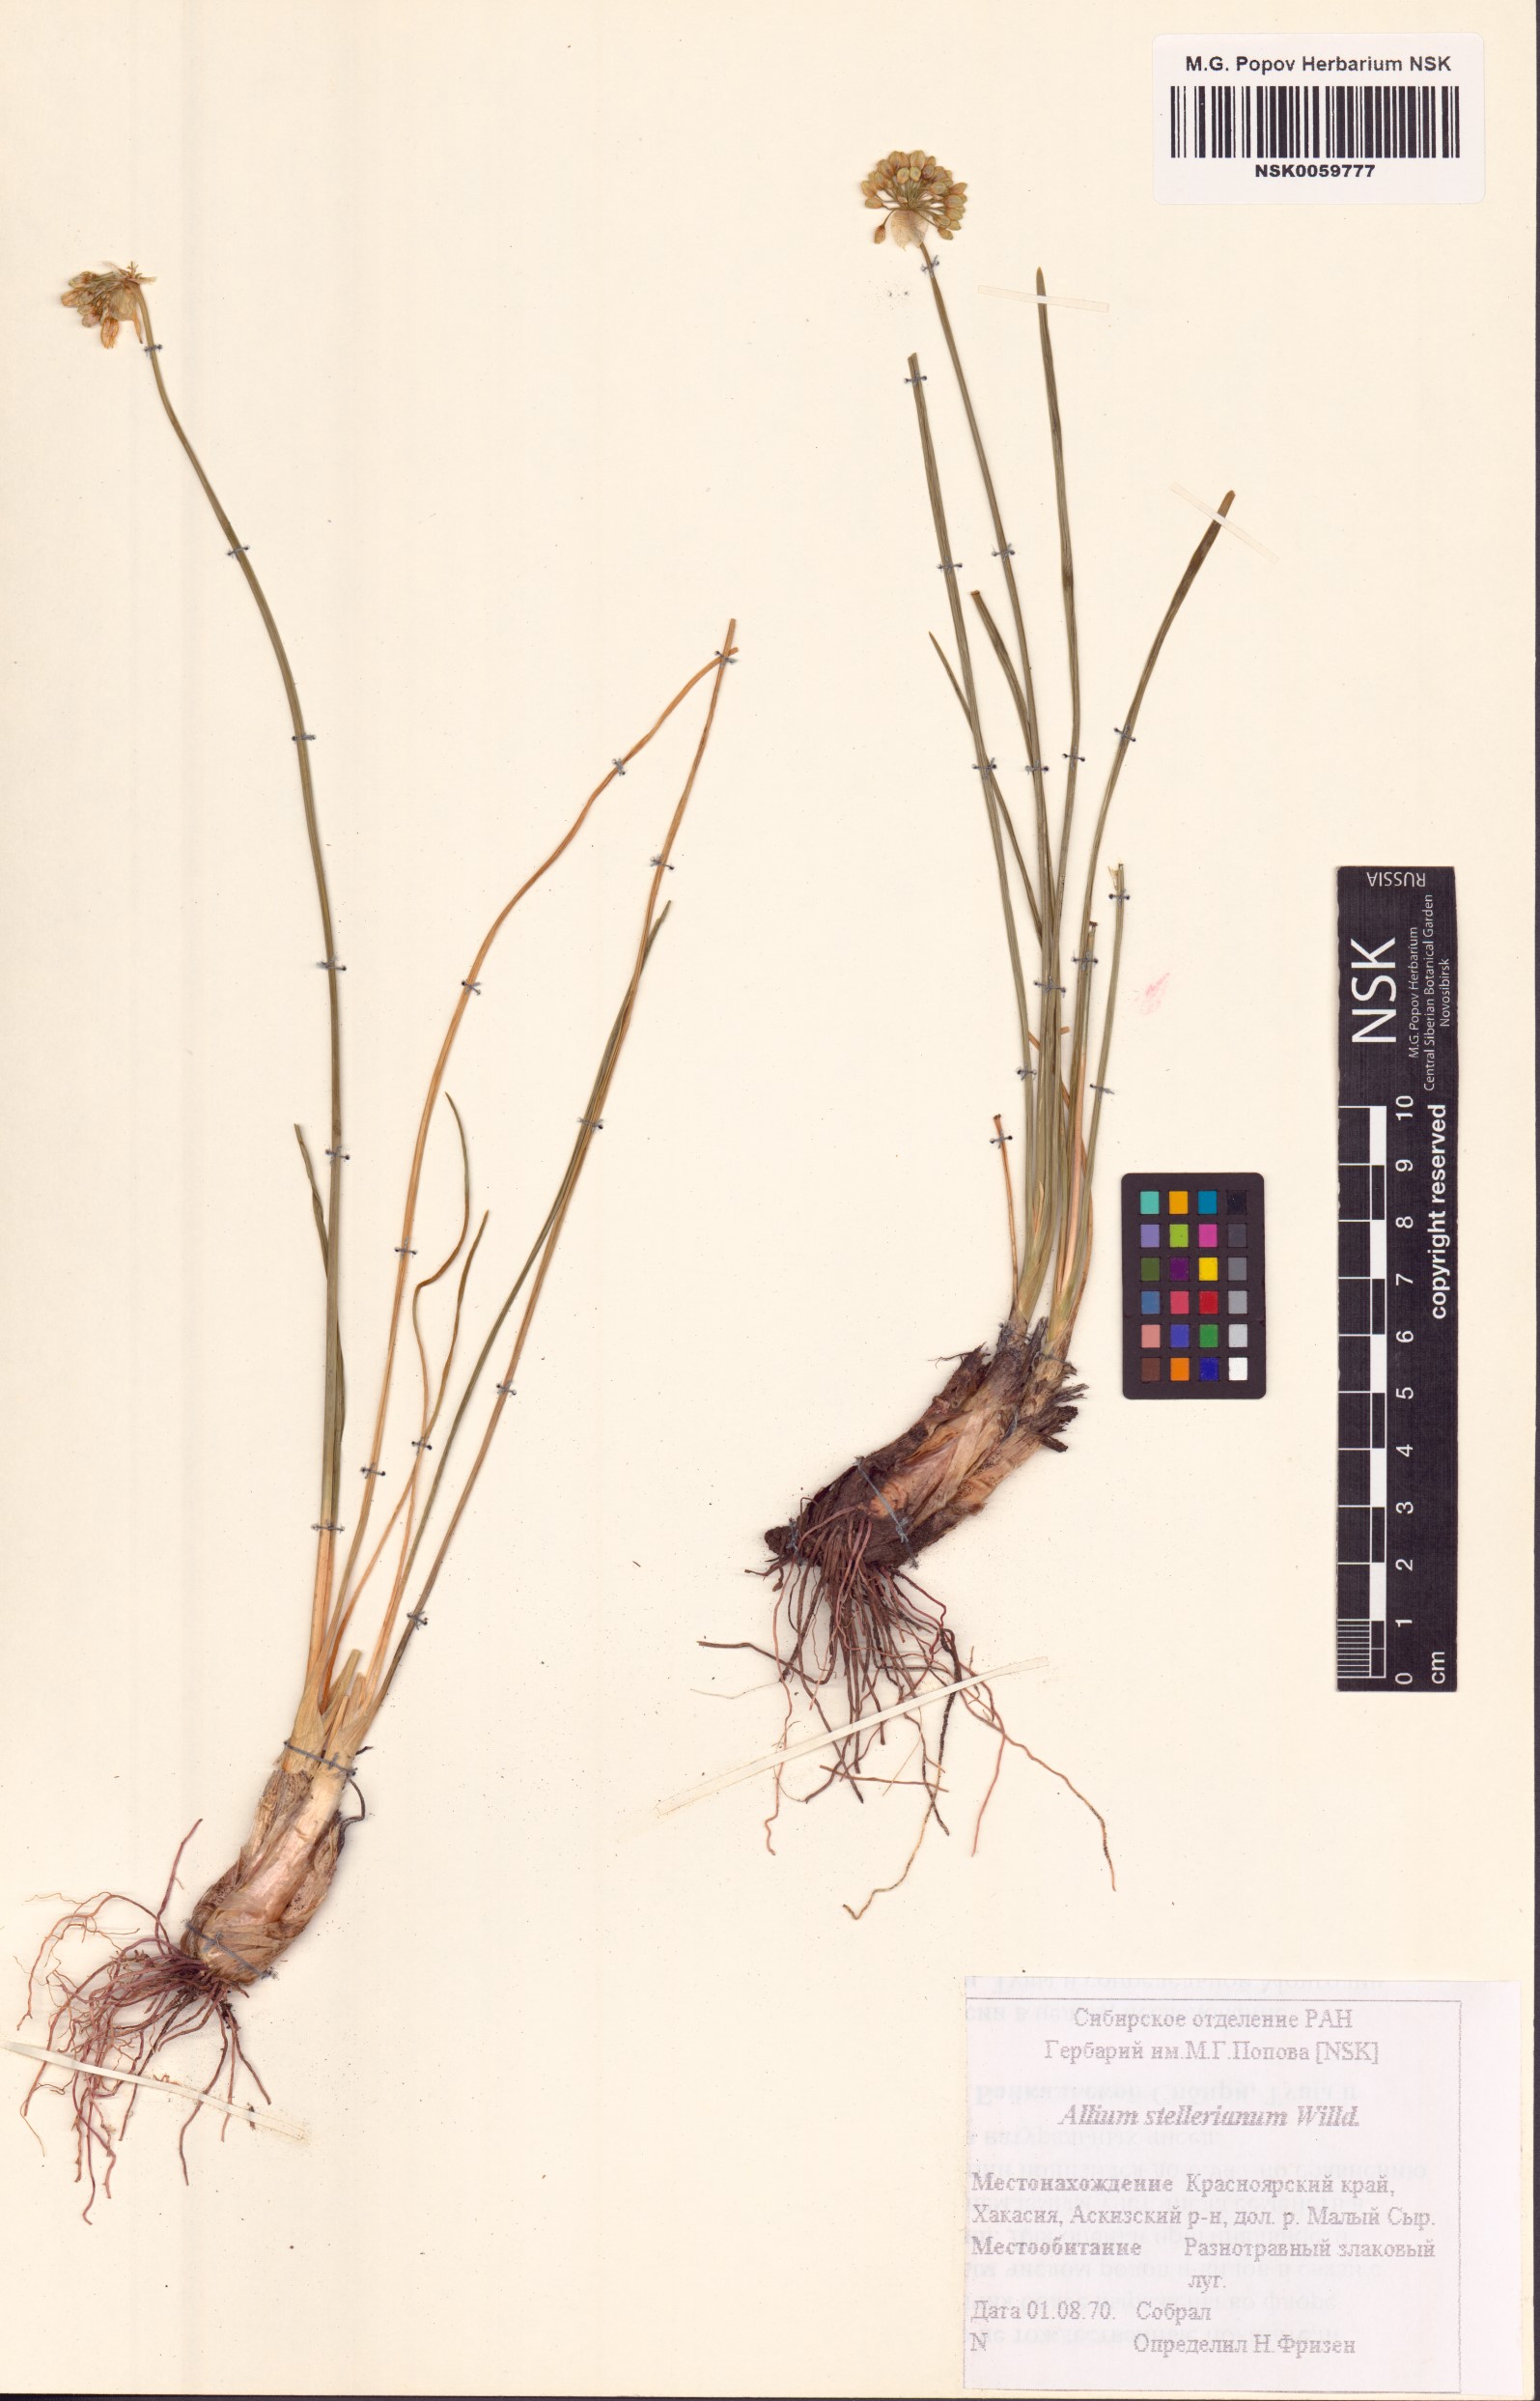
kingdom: Plantae
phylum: Tracheophyta
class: Liliopsida
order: Asparagales
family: Amaryllidaceae
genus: Allium
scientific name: Allium stellerianum
